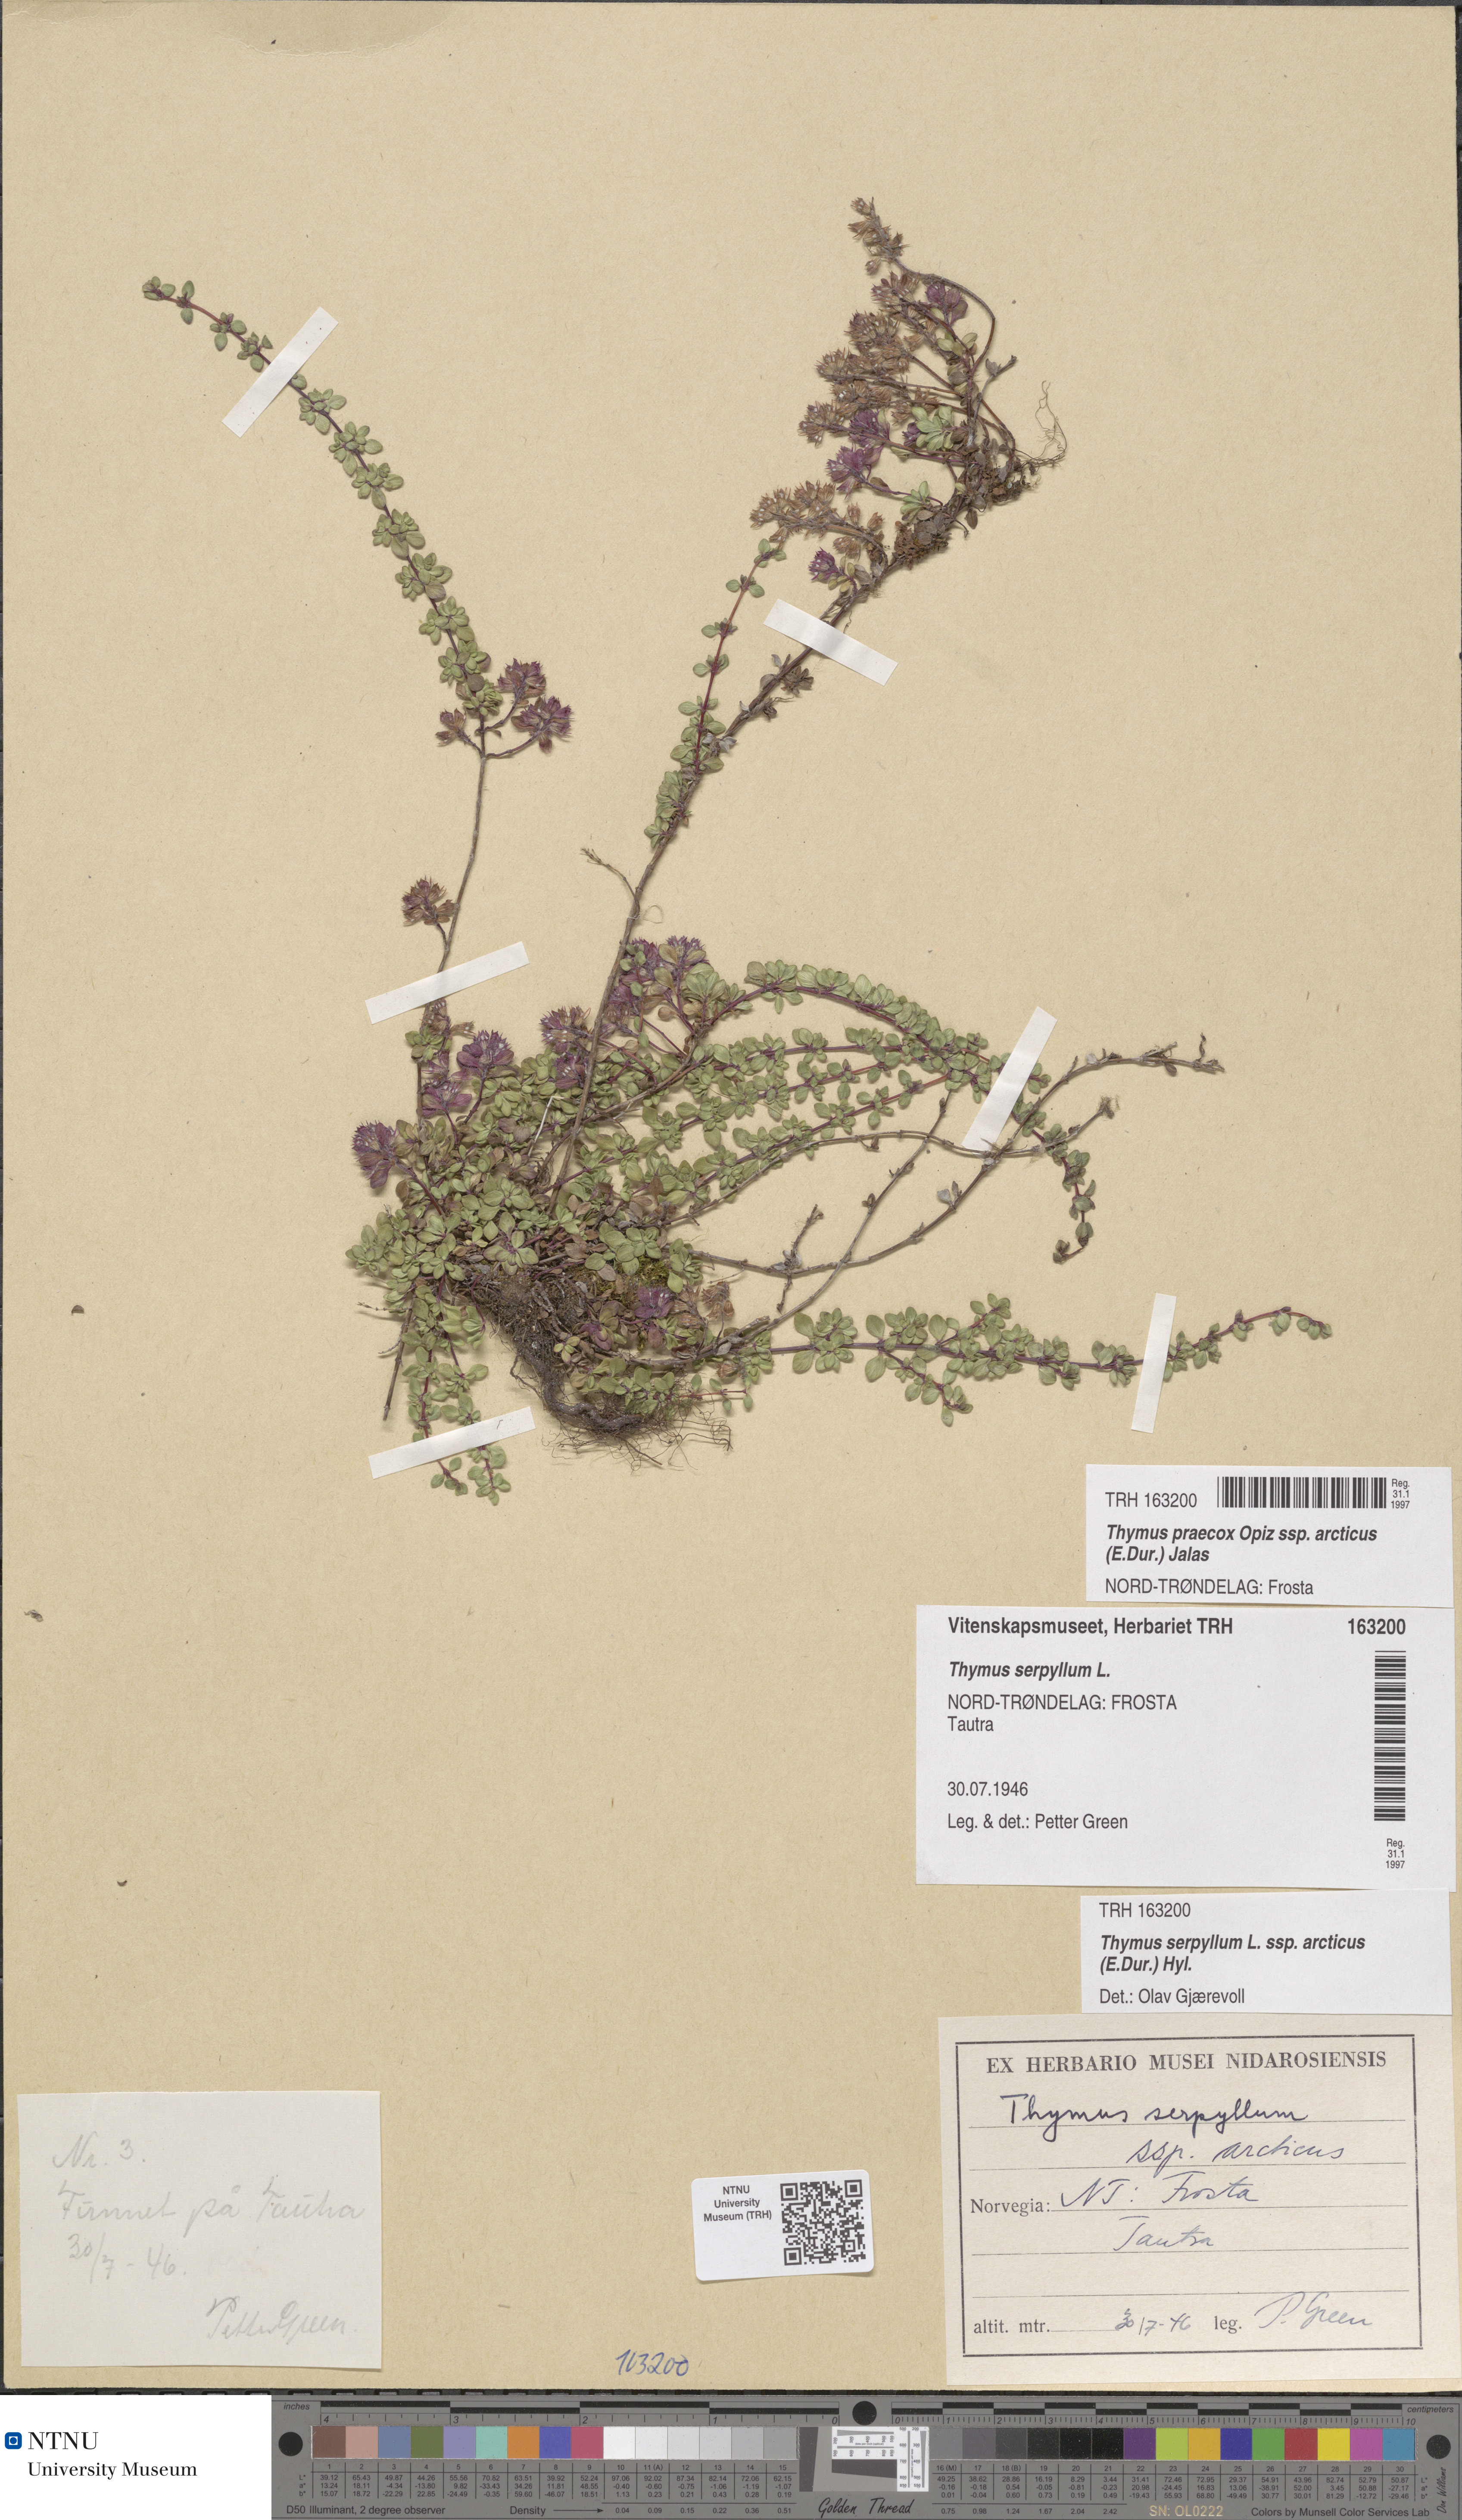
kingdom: Plantae
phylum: Tracheophyta
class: Magnoliopsida
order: Lamiales
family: Lamiaceae
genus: Thymus
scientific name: Thymus praecox
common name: Wild thyme
